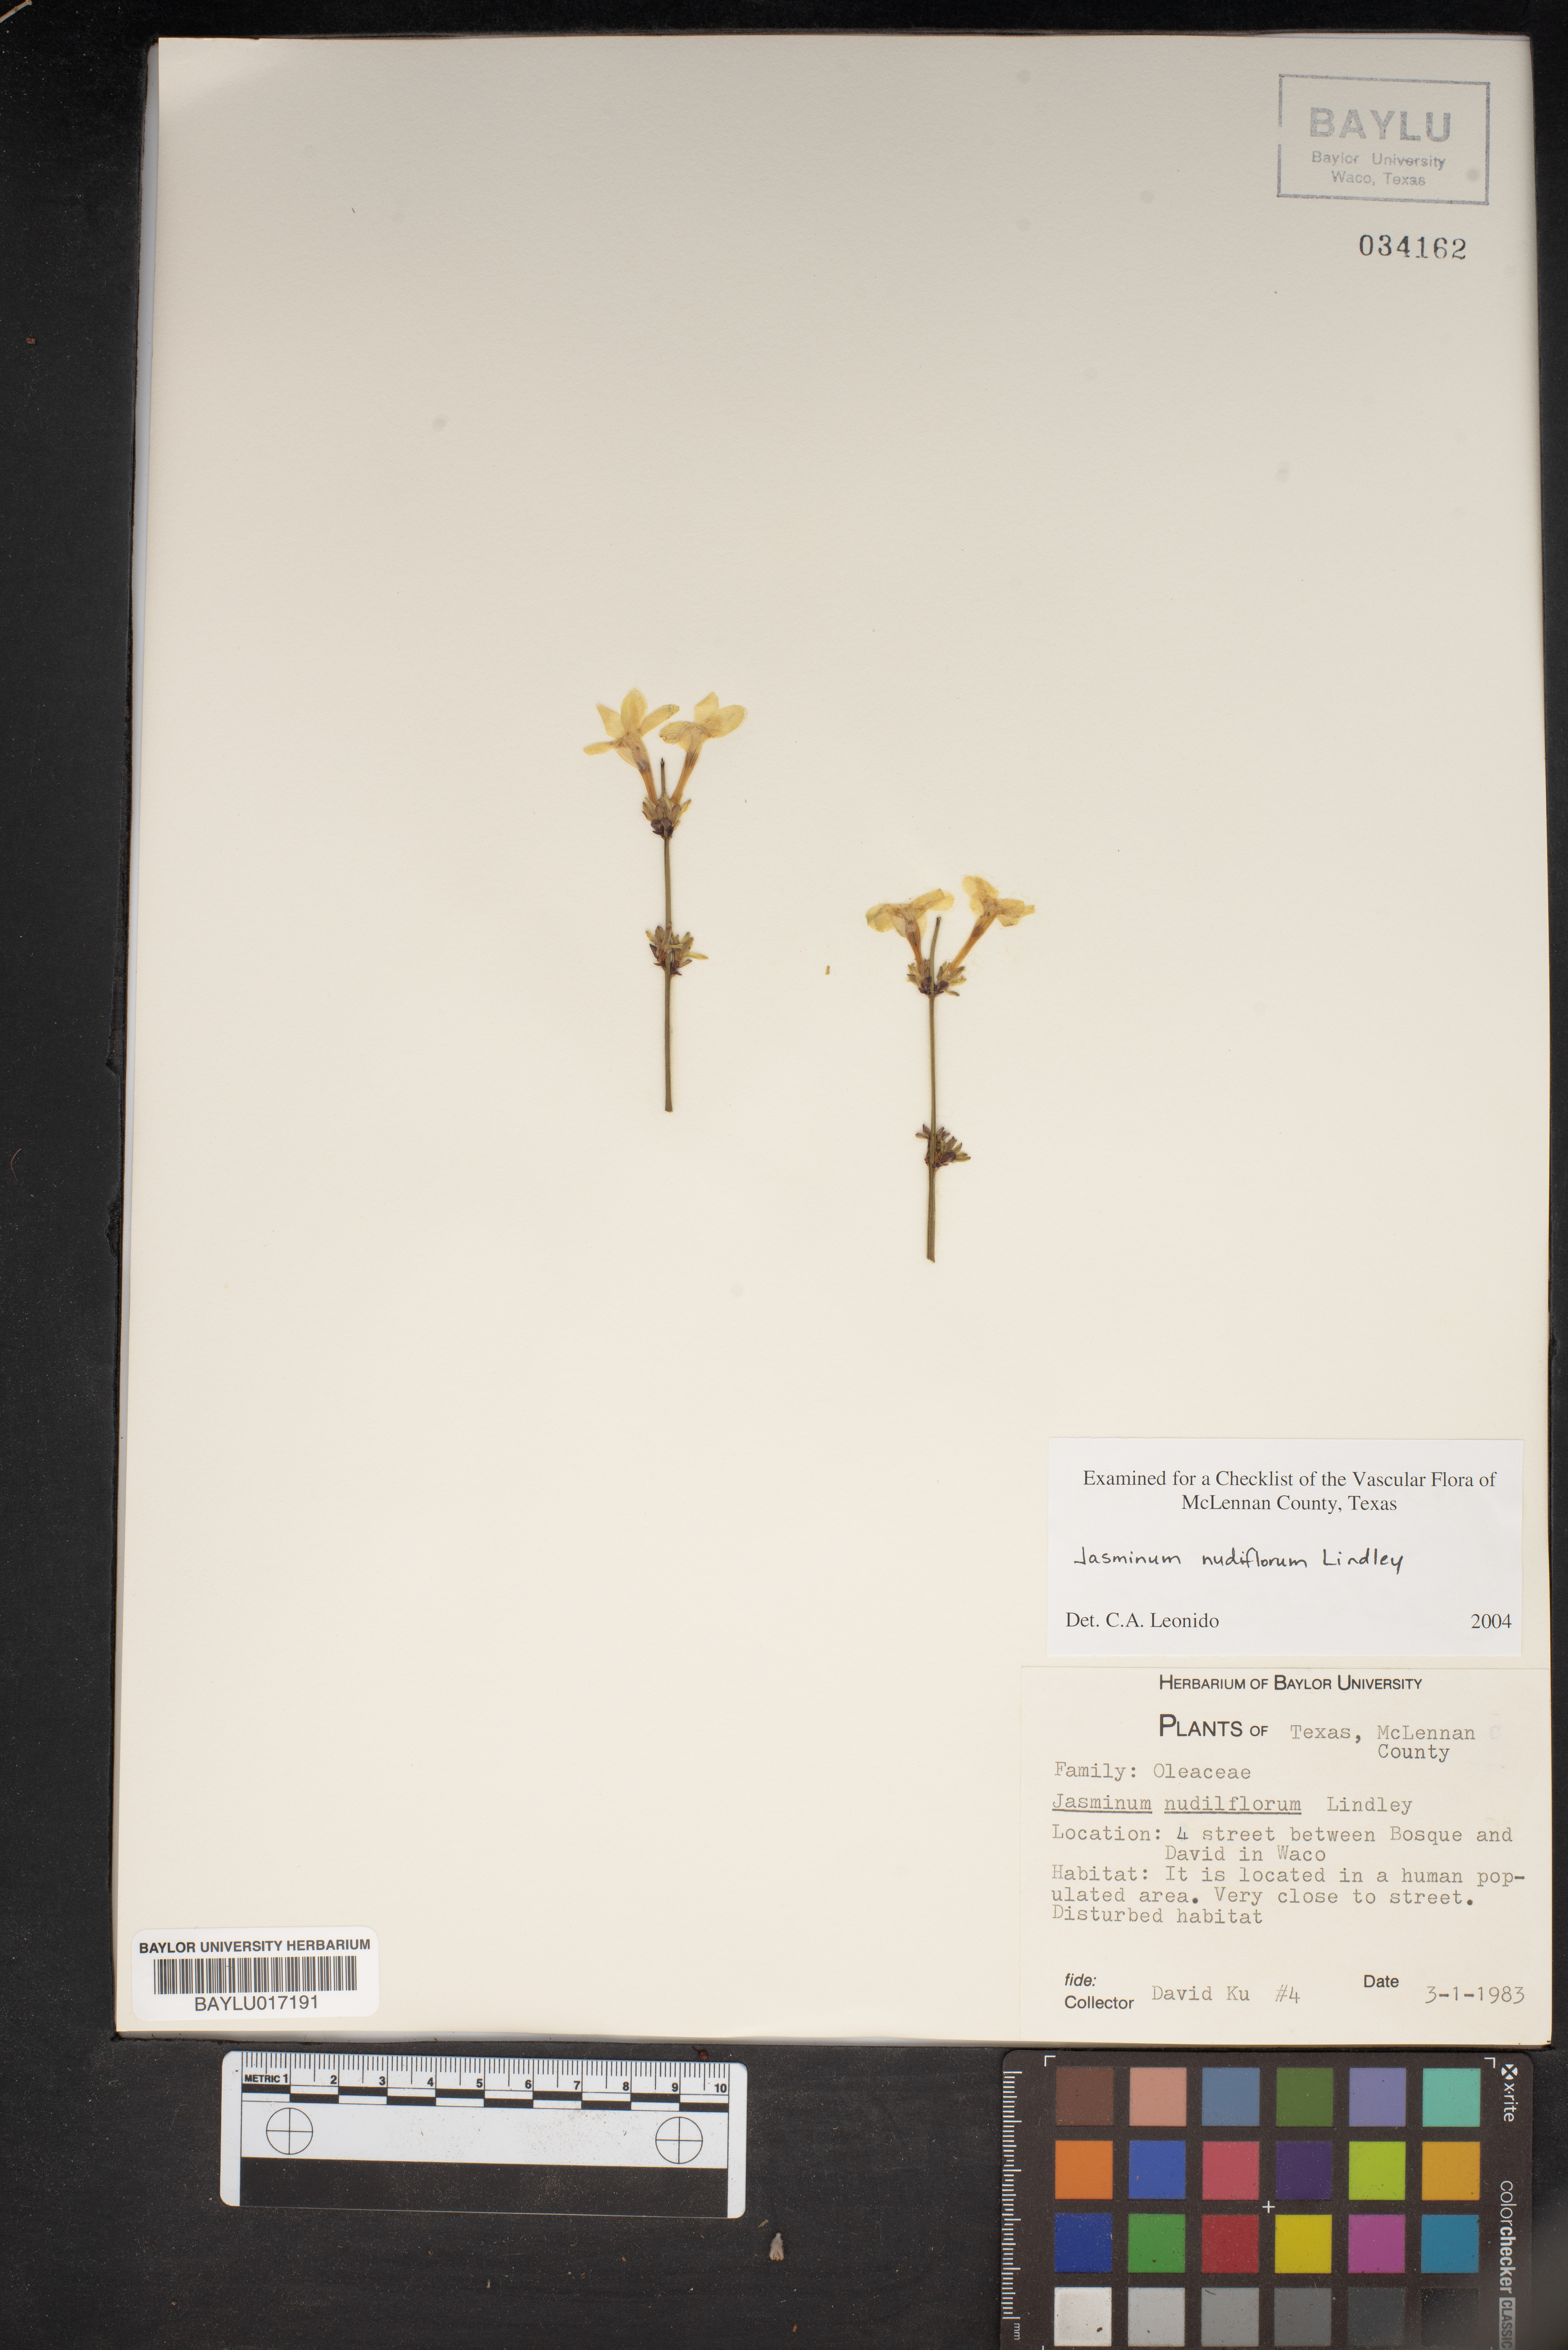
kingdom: Plantae
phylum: Tracheophyta
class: Magnoliopsida
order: Lamiales
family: Oleaceae
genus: Jasminum
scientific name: Jasminum nudiflorum
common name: Winter jasmine
